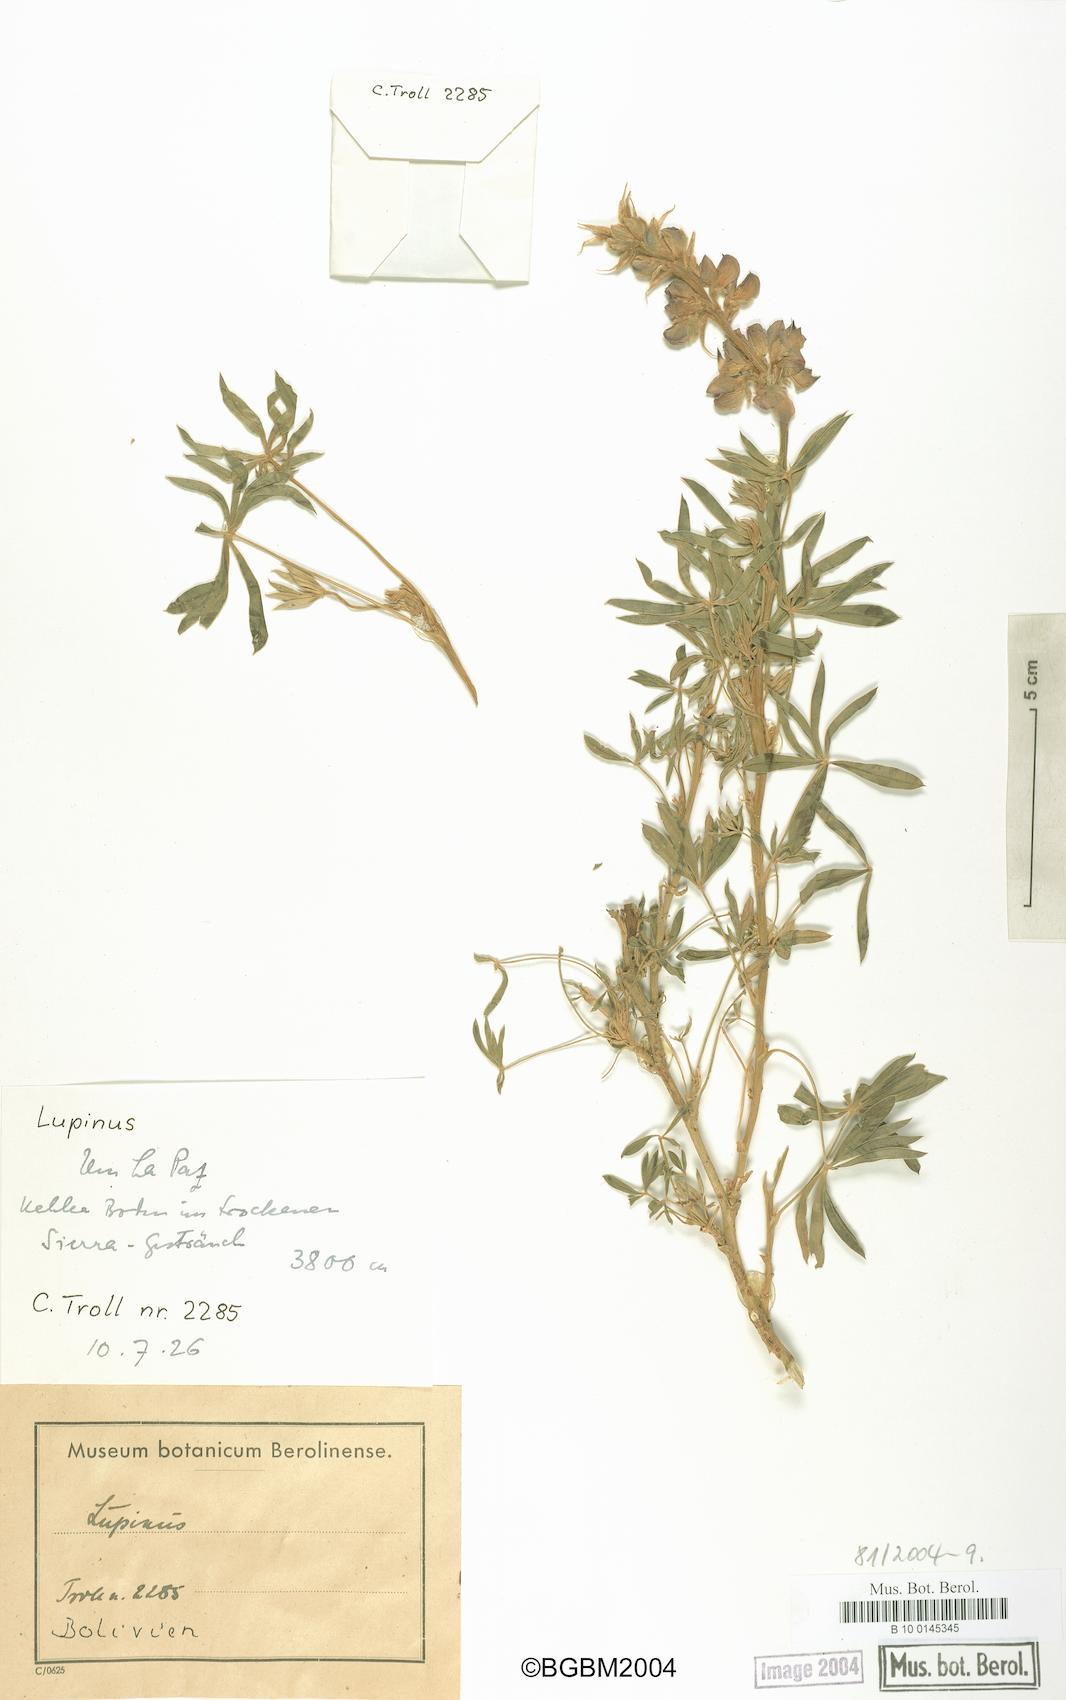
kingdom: Plantae
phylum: Tracheophyta
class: Magnoliopsida
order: Fabales
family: Fabaceae
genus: Lupinus
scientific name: Lupinus
